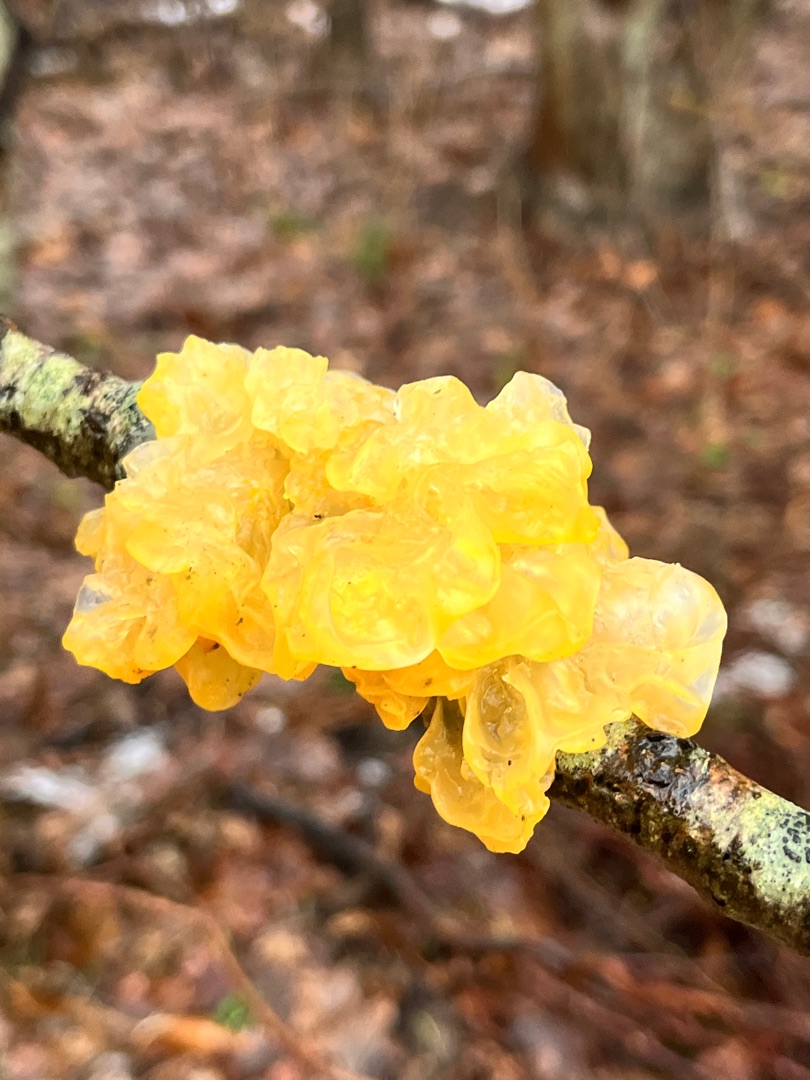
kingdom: Fungi
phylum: Basidiomycota
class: Tremellomycetes
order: Tremellales
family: Tremellaceae
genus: Tremella
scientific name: Tremella mesenterica
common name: Gul bævresvamp
